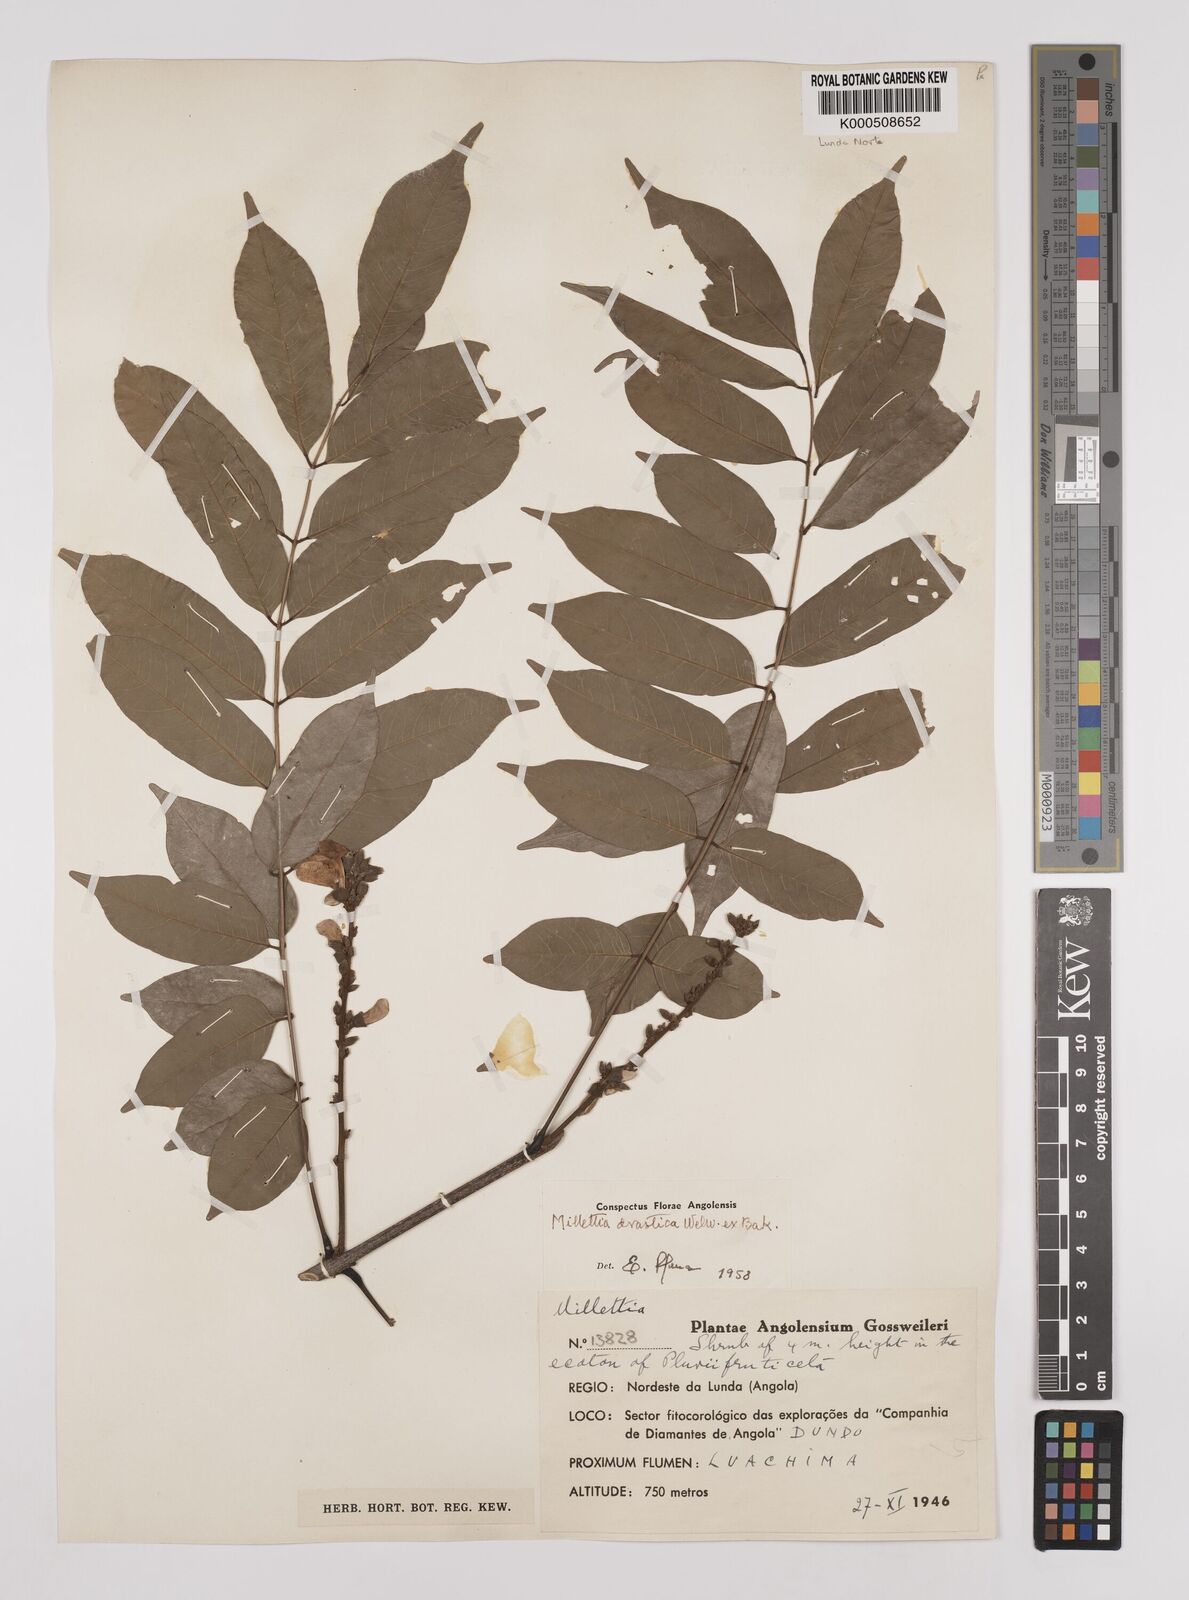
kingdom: Plantae
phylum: Tracheophyta
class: Magnoliopsida
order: Fabales
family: Fabaceae
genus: Millettia
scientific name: Millettia drastica
